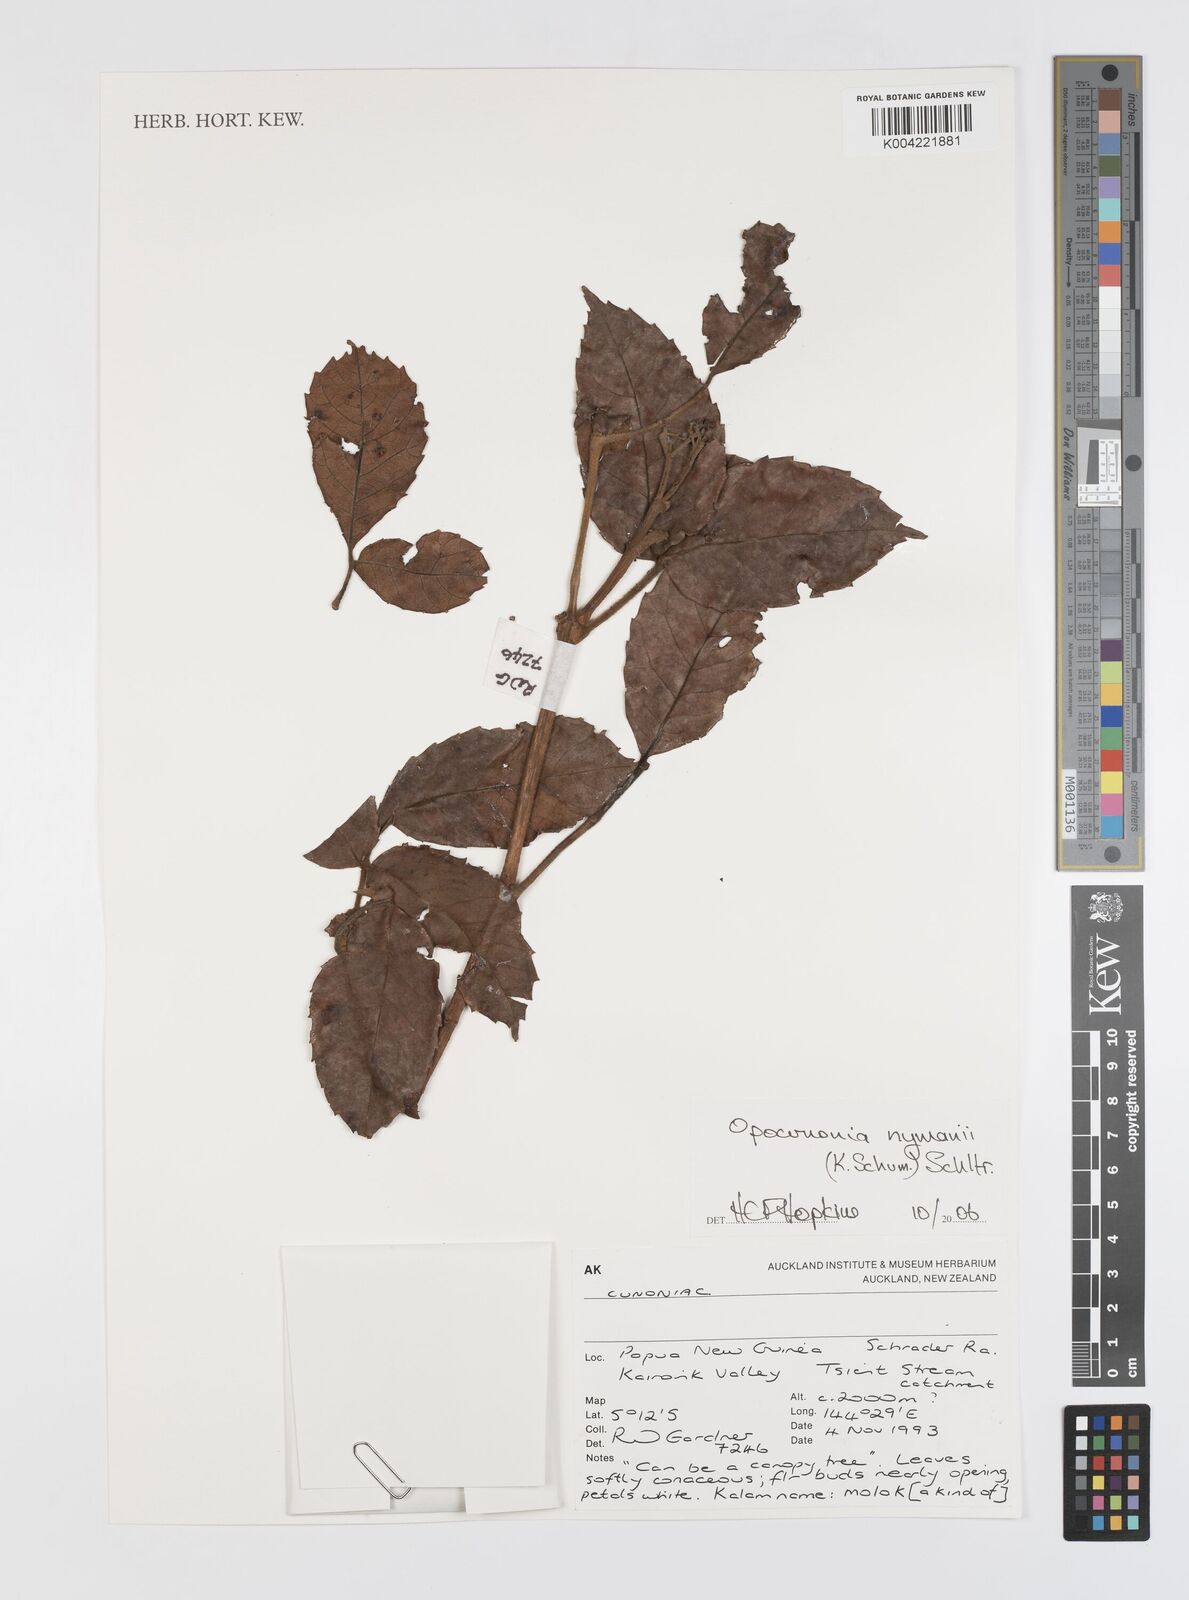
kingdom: Plantae
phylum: Tracheophyta
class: Magnoliopsida
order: Oxalidales
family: Cunoniaceae
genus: Opocunonia
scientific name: Opocunonia nymanii
